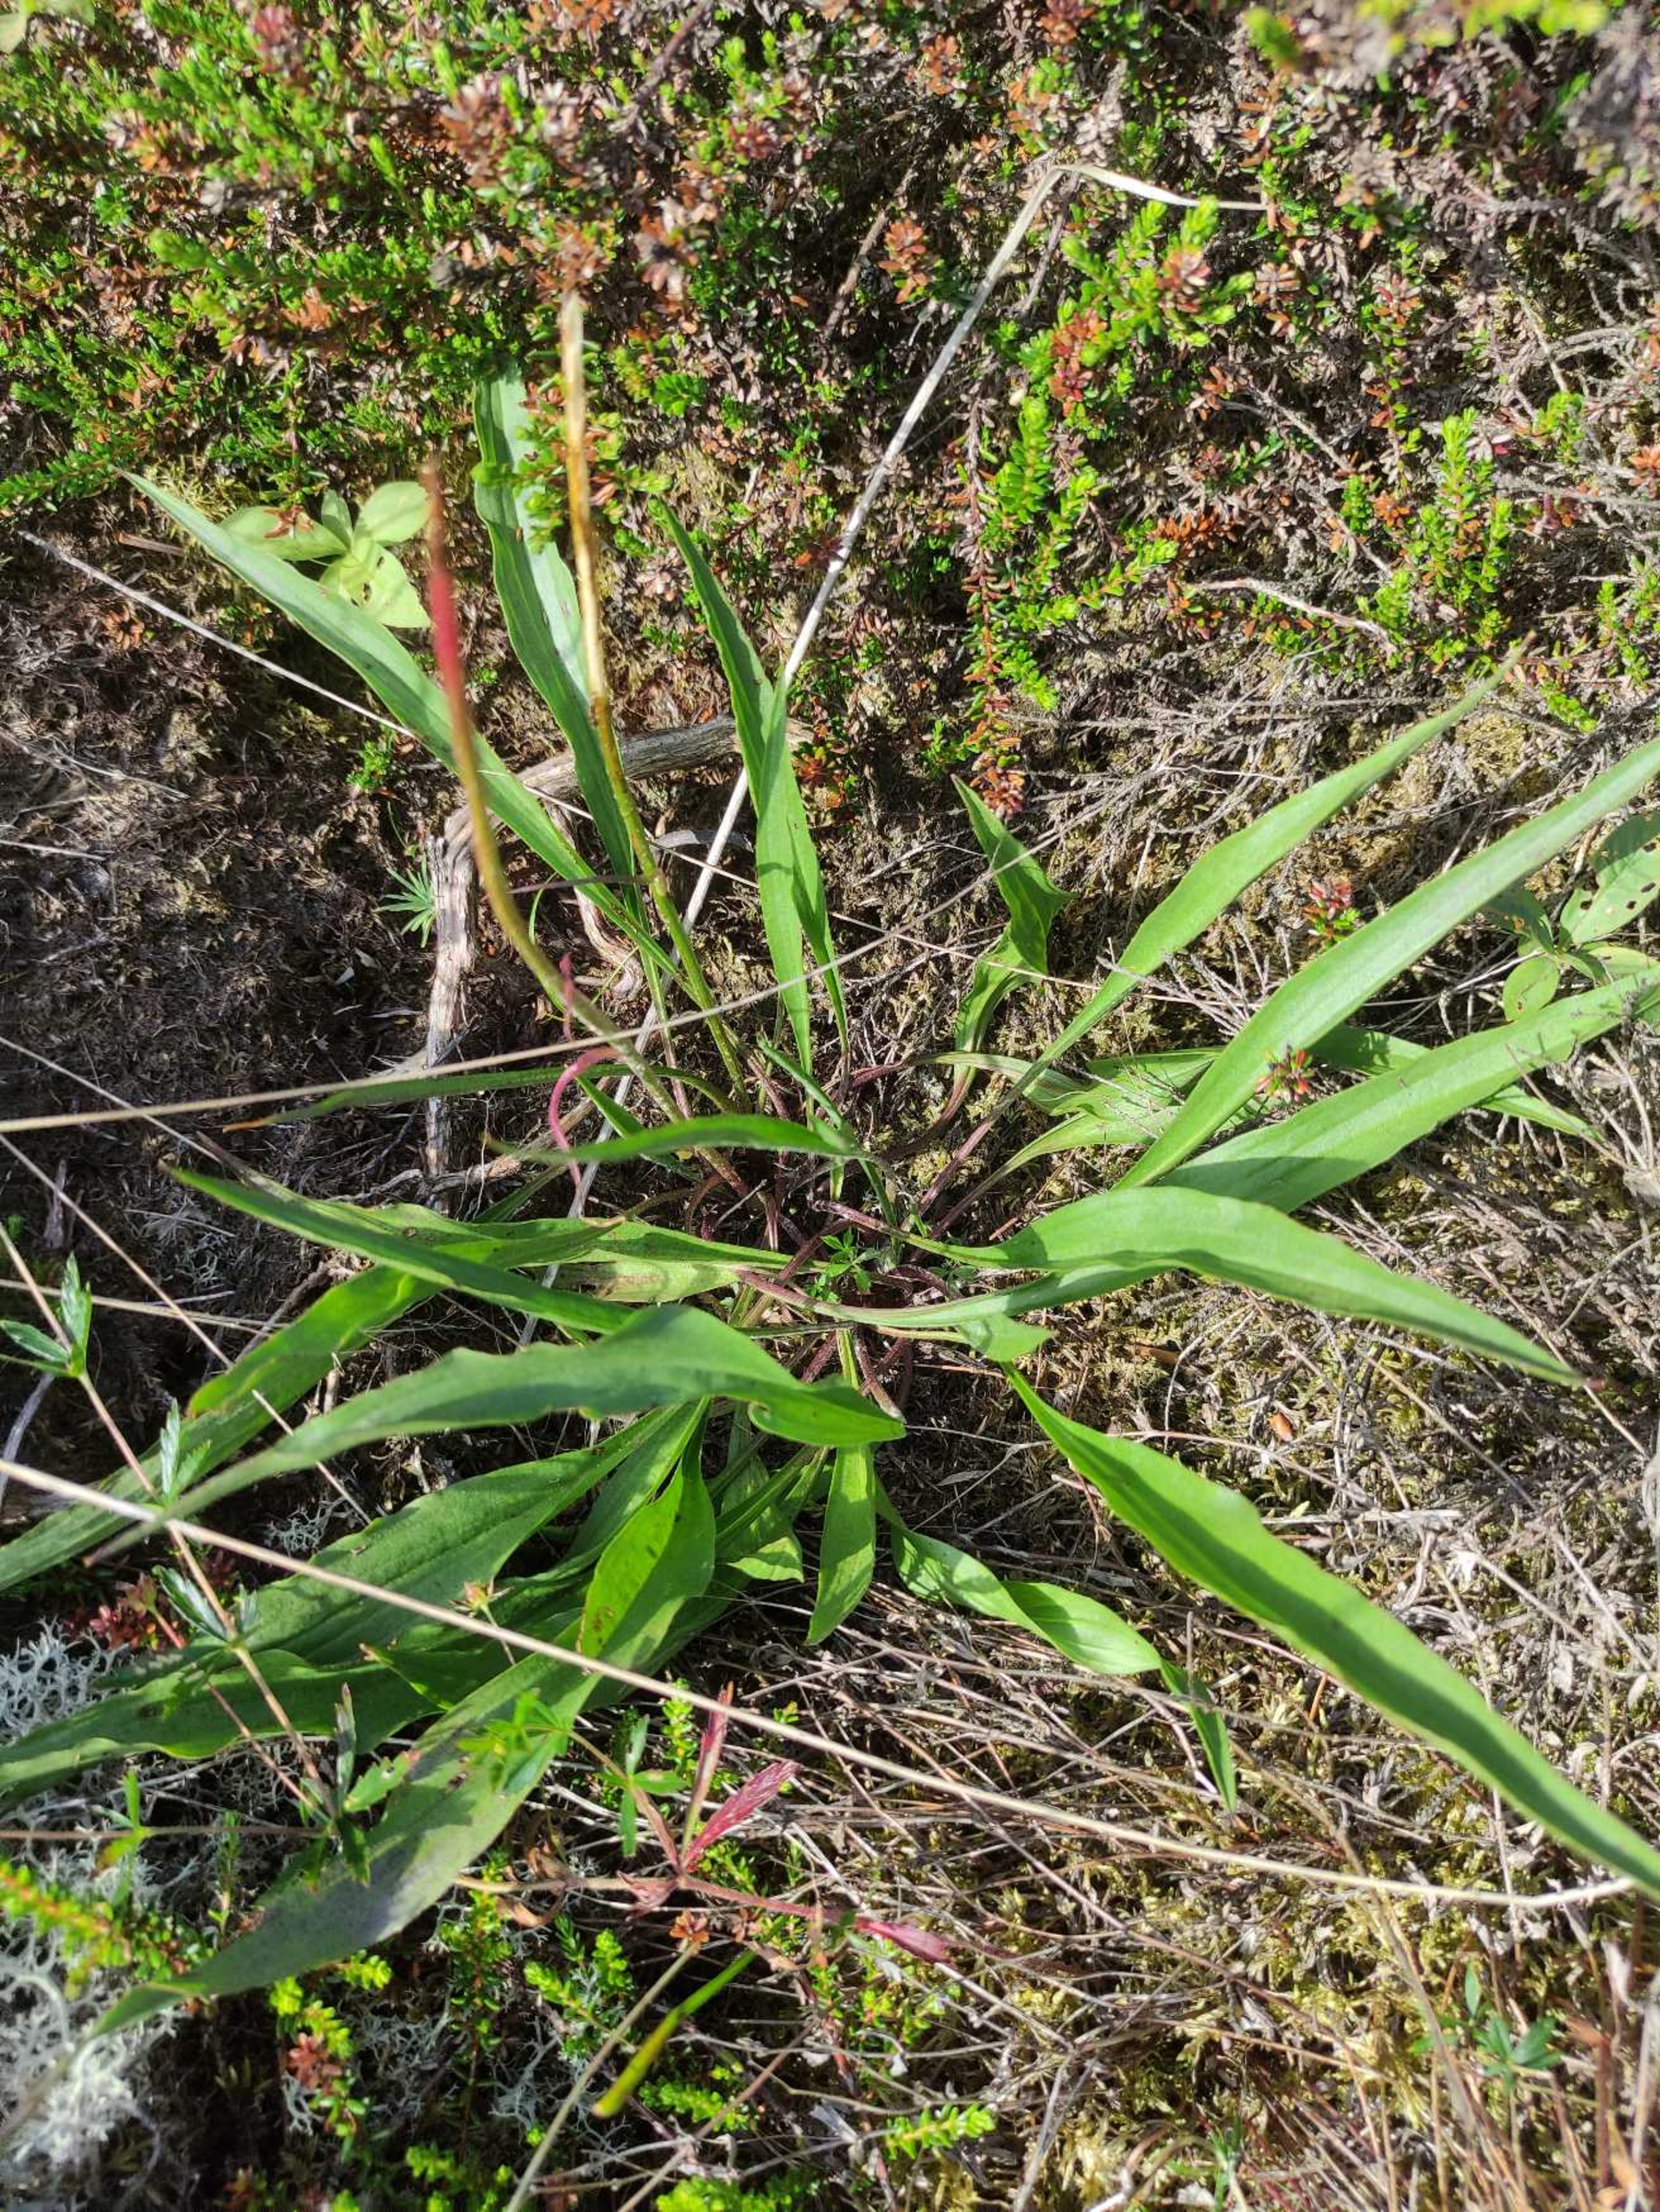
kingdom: Plantae
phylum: Tracheophyta
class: Magnoliopsida
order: Asterales
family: Asteraceae
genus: Scorzonera
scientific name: Scorzonera humilis
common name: Lav skorsoner
